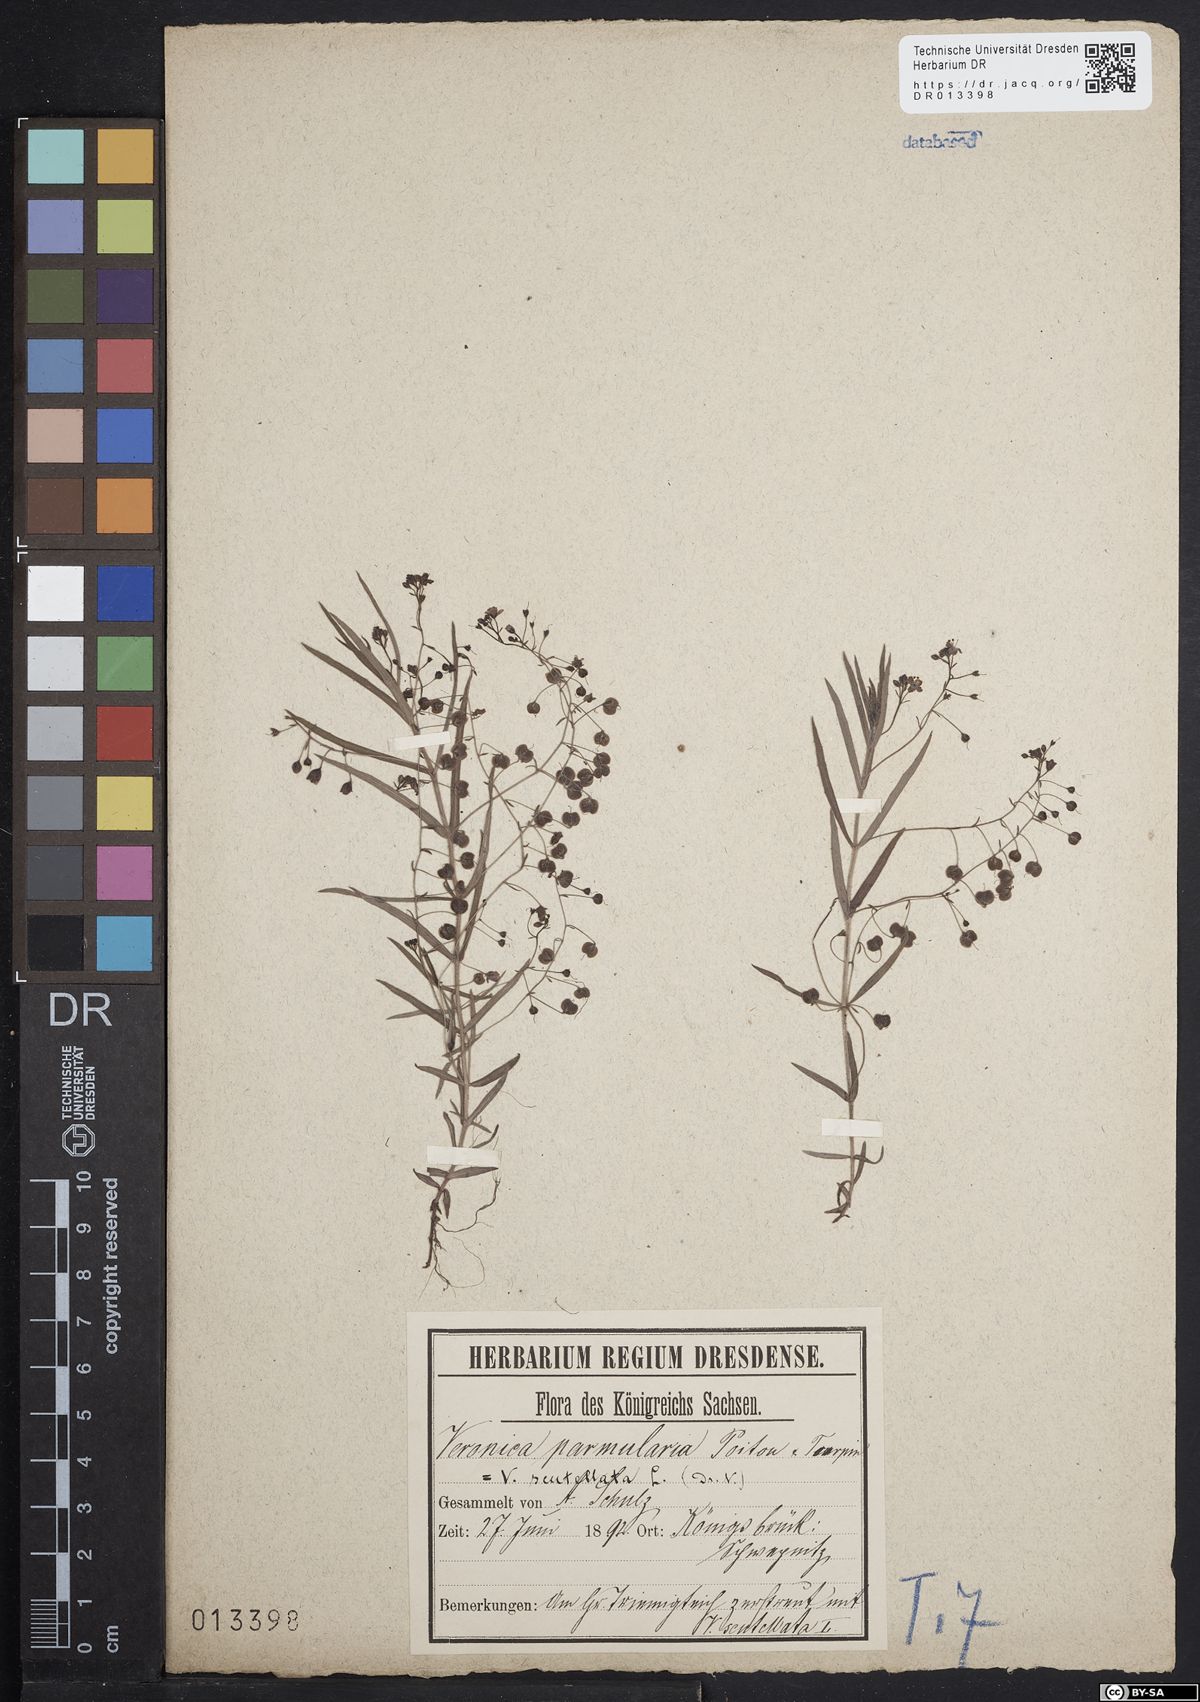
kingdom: Plantae
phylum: Tracheophyta
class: Magnoliopsida
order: Lamiales
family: Plantaginaceae
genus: Veronica
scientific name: Veronica scutellata
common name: Marsh speedwell
